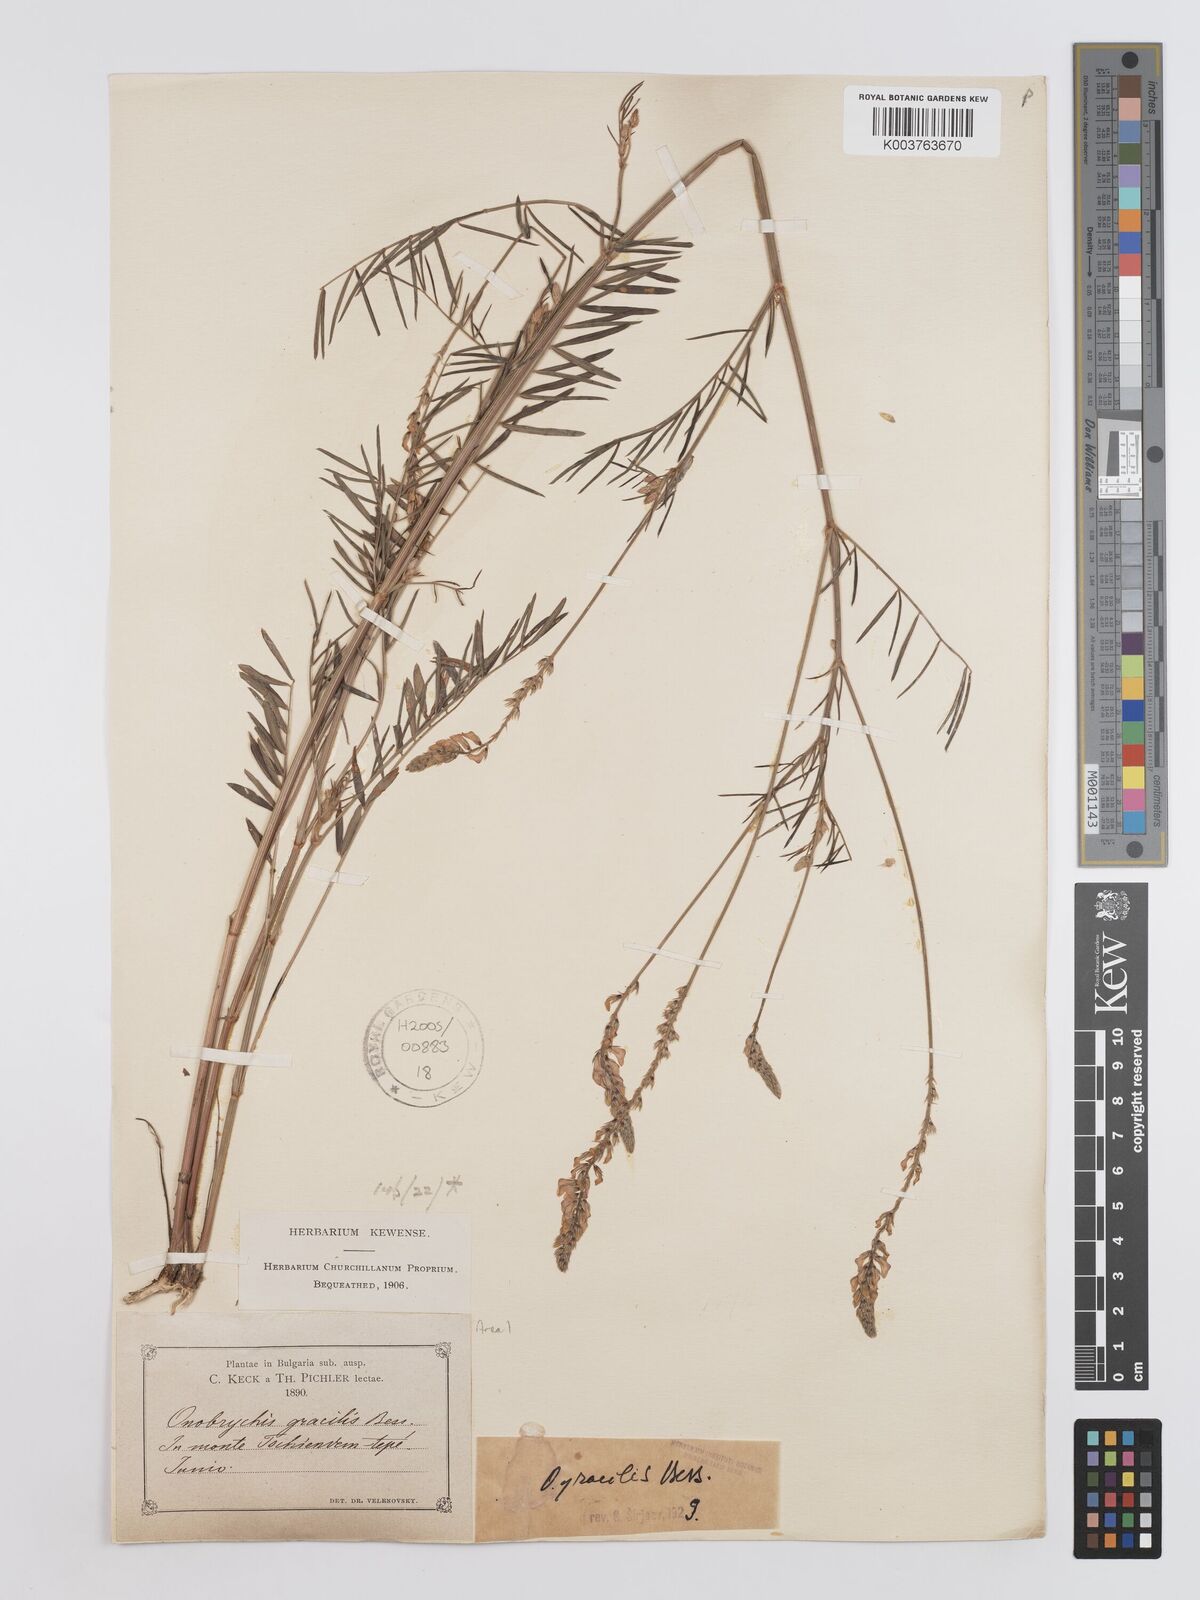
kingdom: Plantae
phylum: Tracheophyta
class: Magnoliopsida
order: Fabales
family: Fabaceae
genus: Onobrychis
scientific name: Onobrychis gracilis
